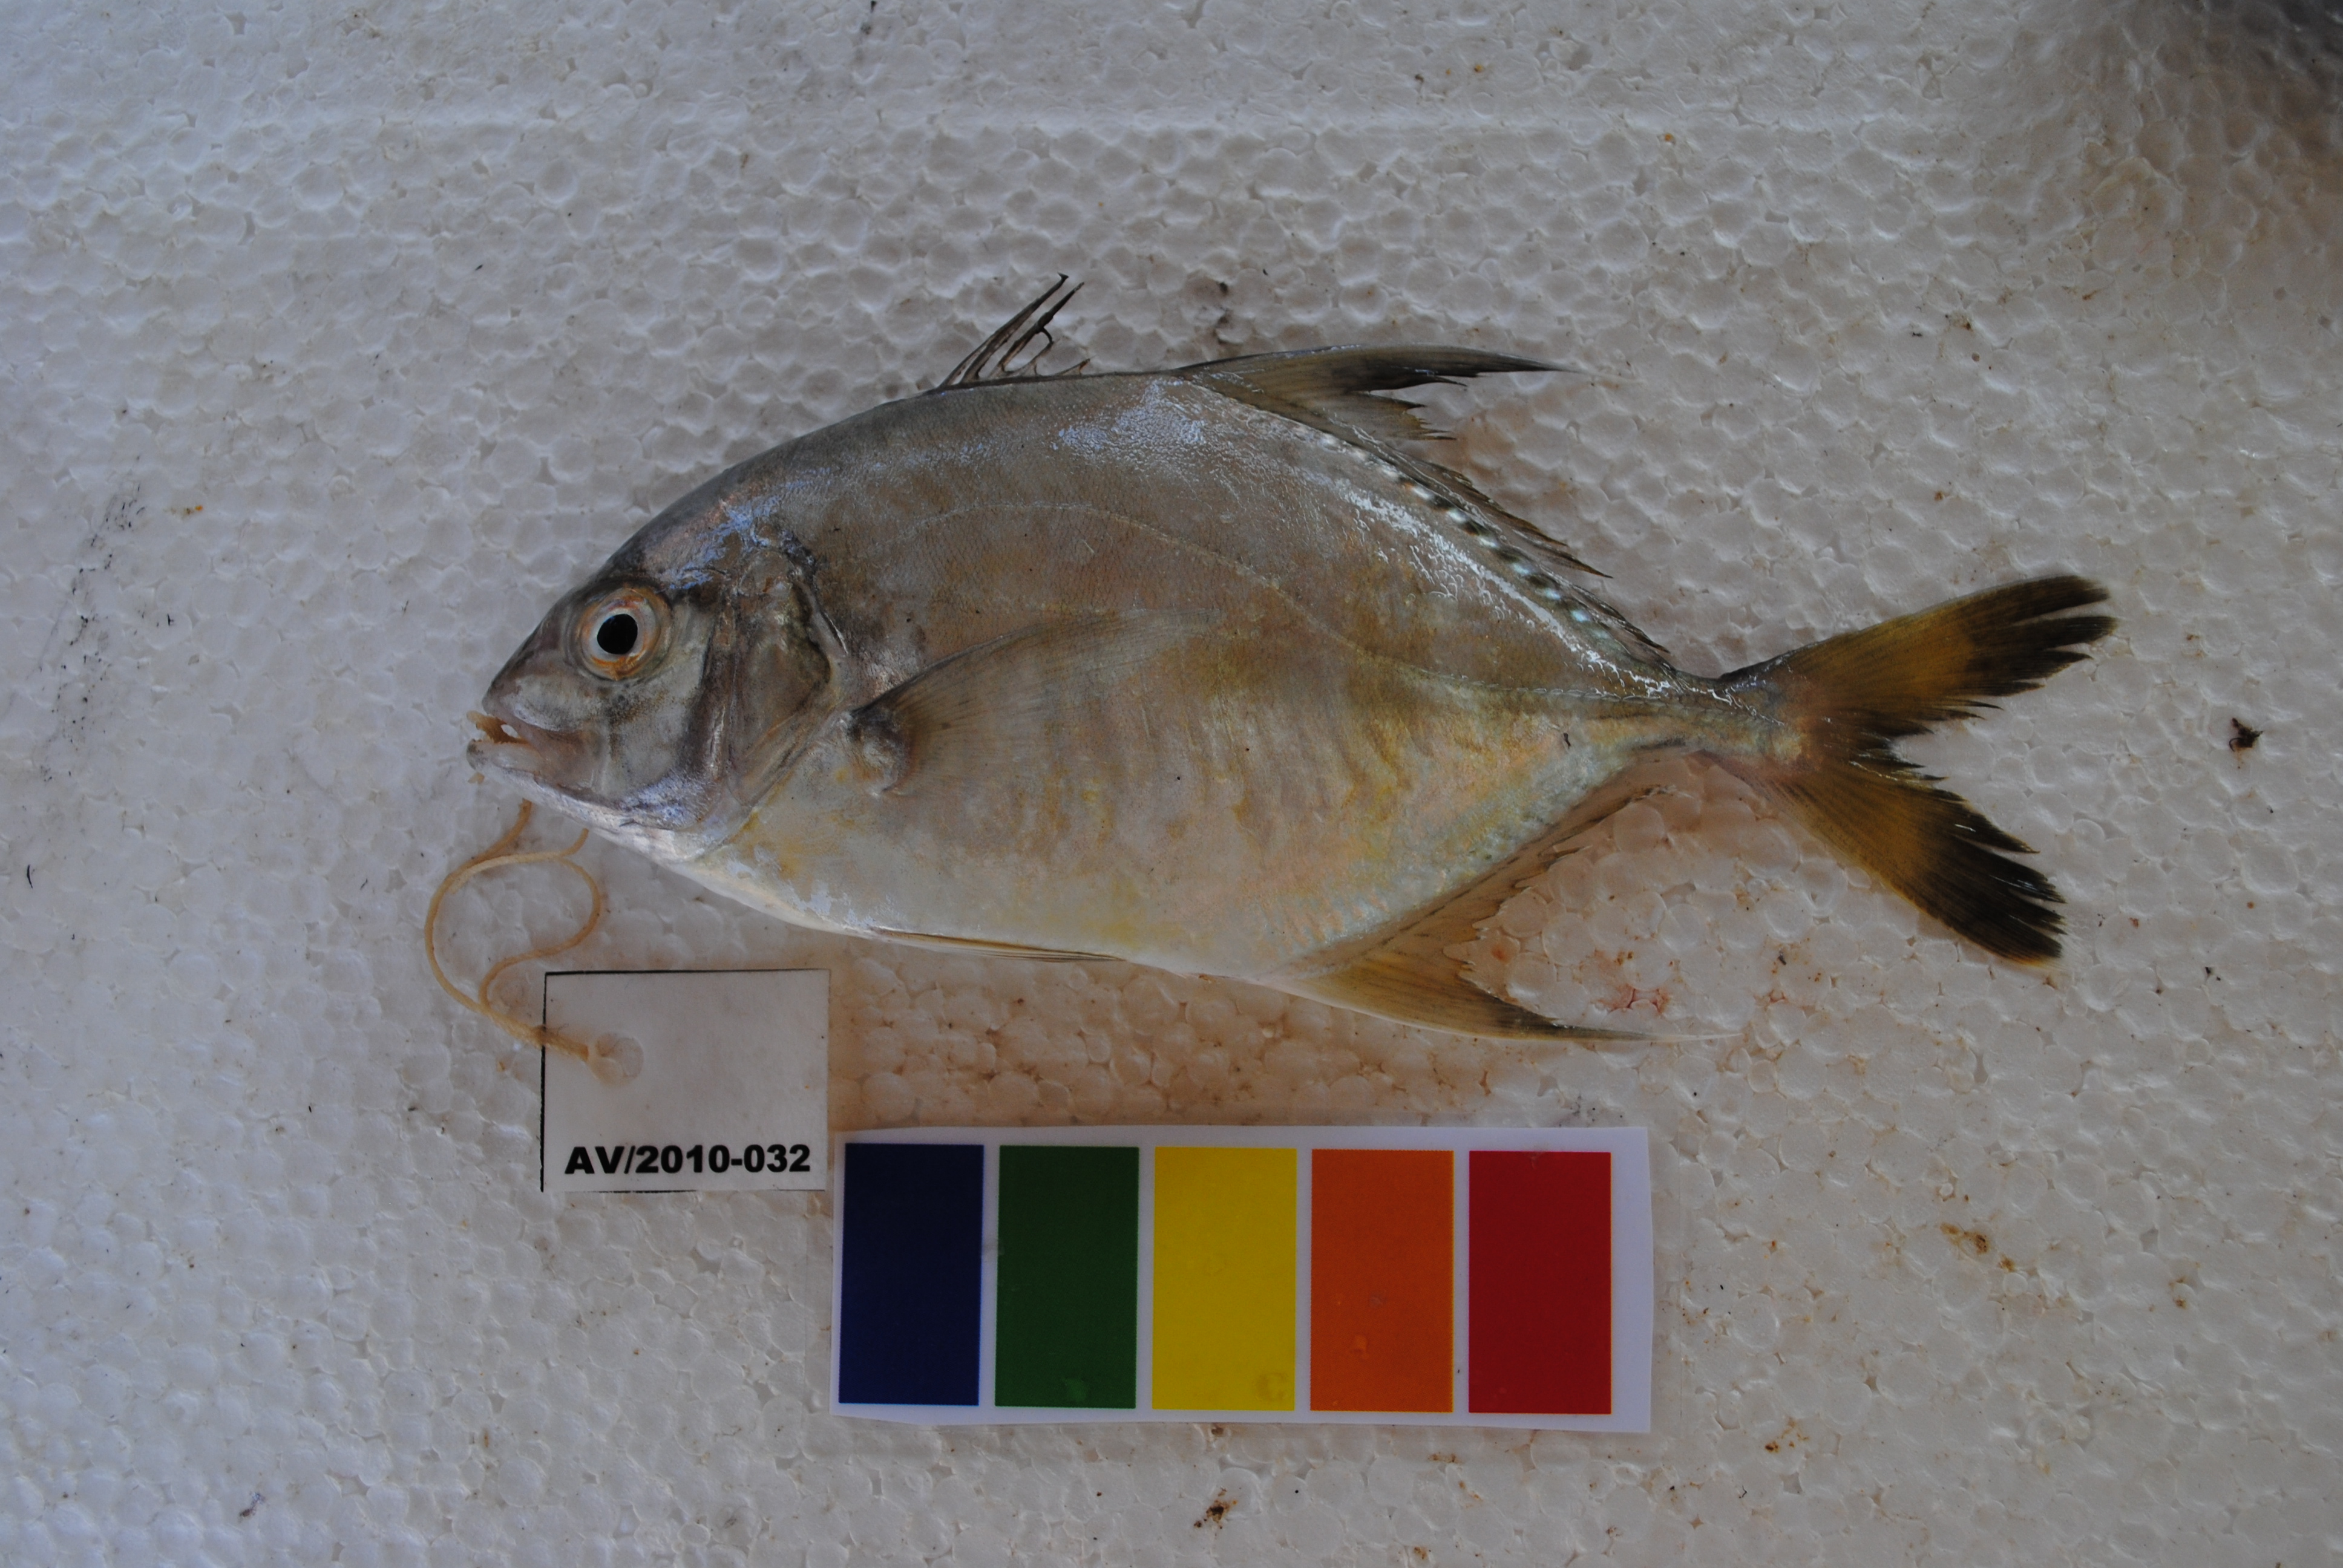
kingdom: Animalia
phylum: Chordata
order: Perciformes
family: Carangidae
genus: Carangoides
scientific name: Carangoides chrysophrys
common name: Longnose trevally
